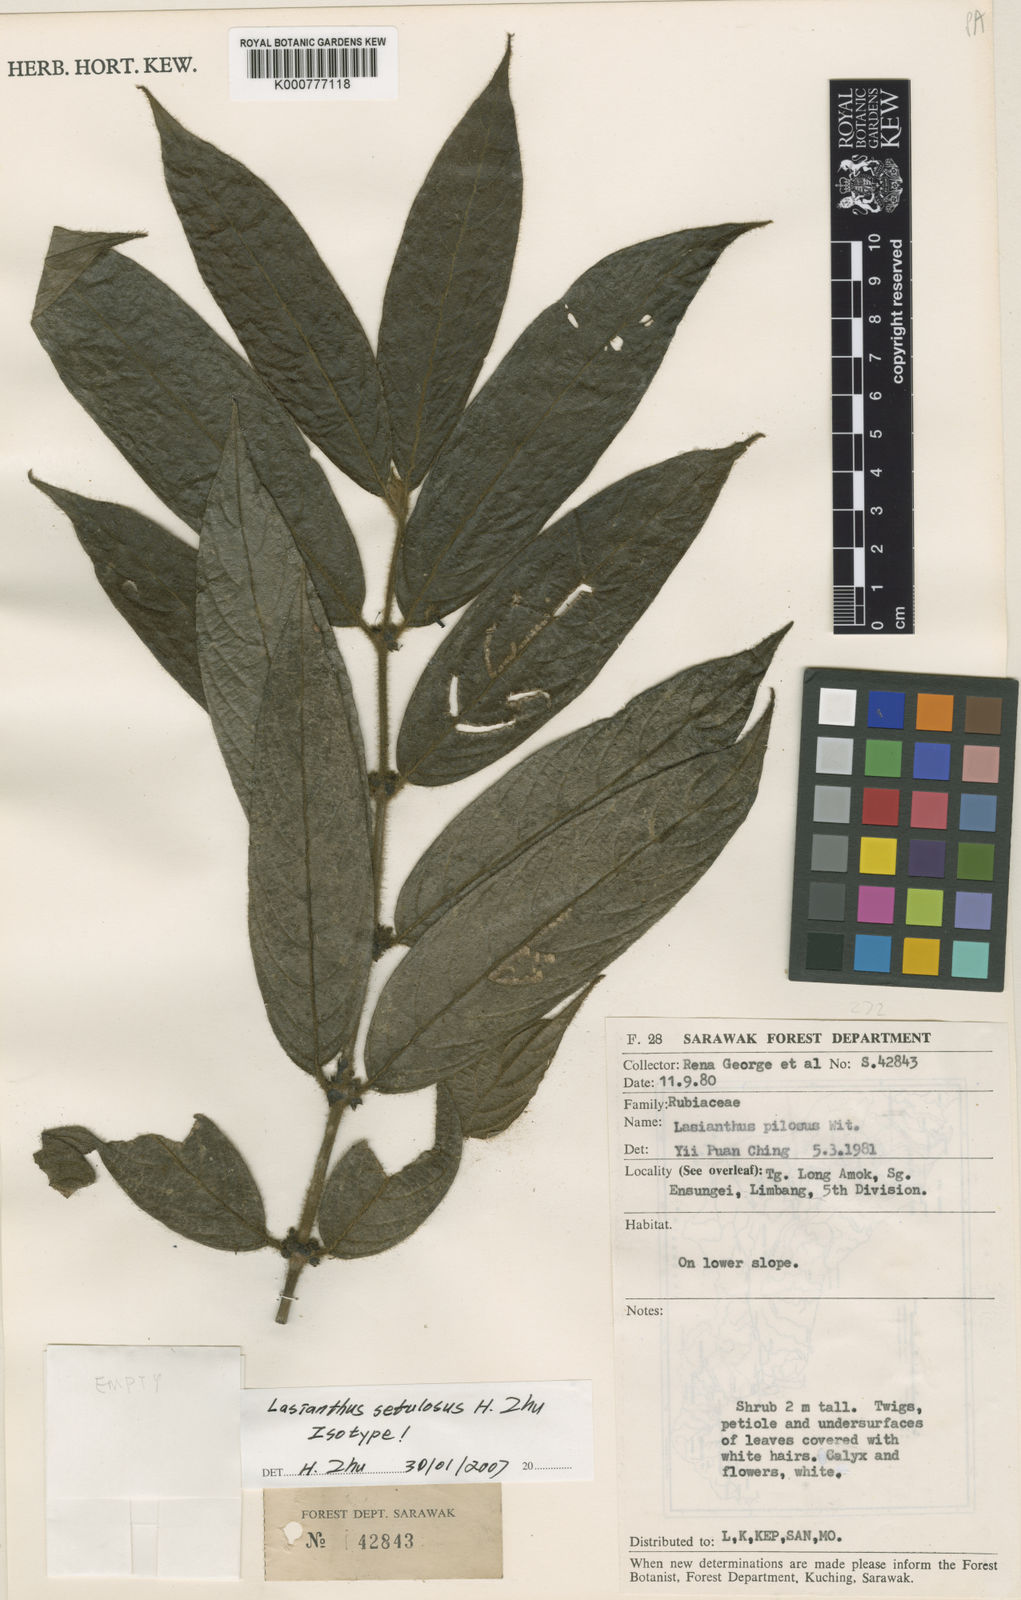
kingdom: Plantae
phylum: Tracheophyta
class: Magnoliopsida
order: Gentianales
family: Rubiaceae
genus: Lasianthus
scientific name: Lasianthus setulosus
